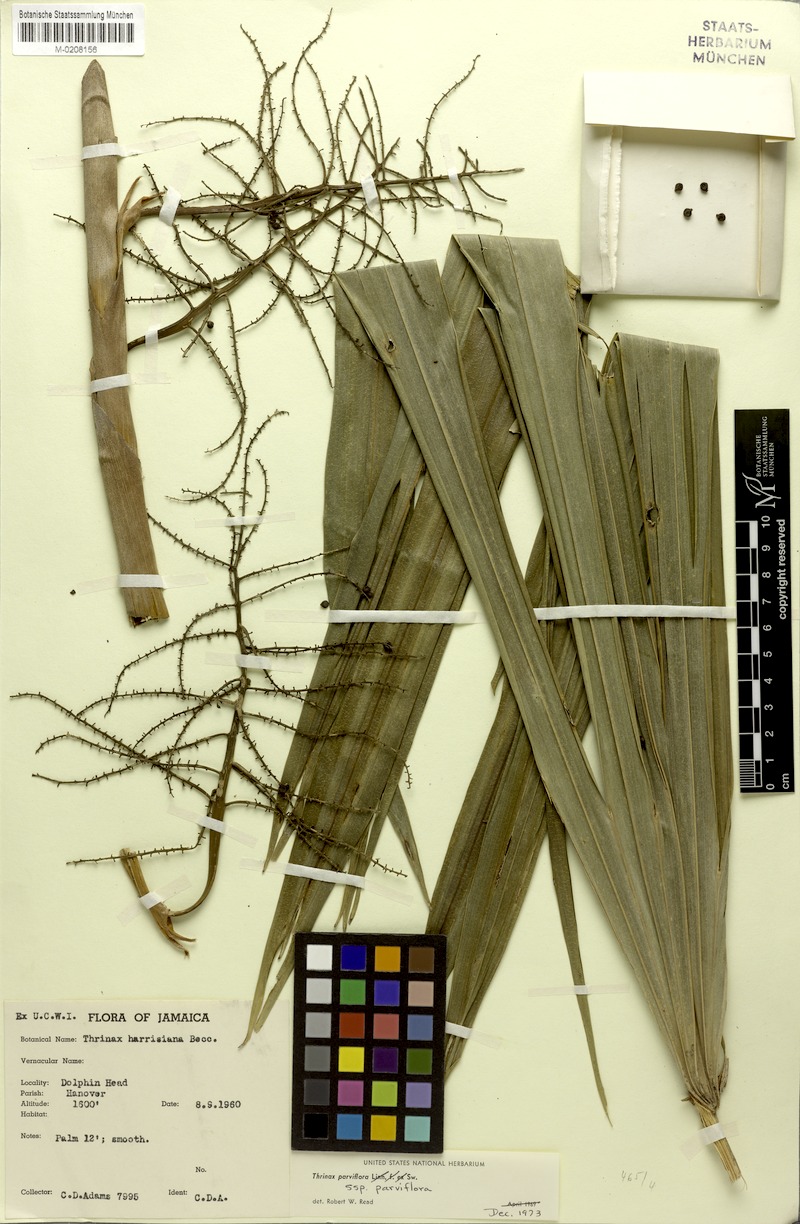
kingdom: Plantae
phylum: Tracheophyta
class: Liliopsida
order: Arecales
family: Arecaceae
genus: Thrinax
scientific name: Thrinax parviflora
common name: Broom palm
